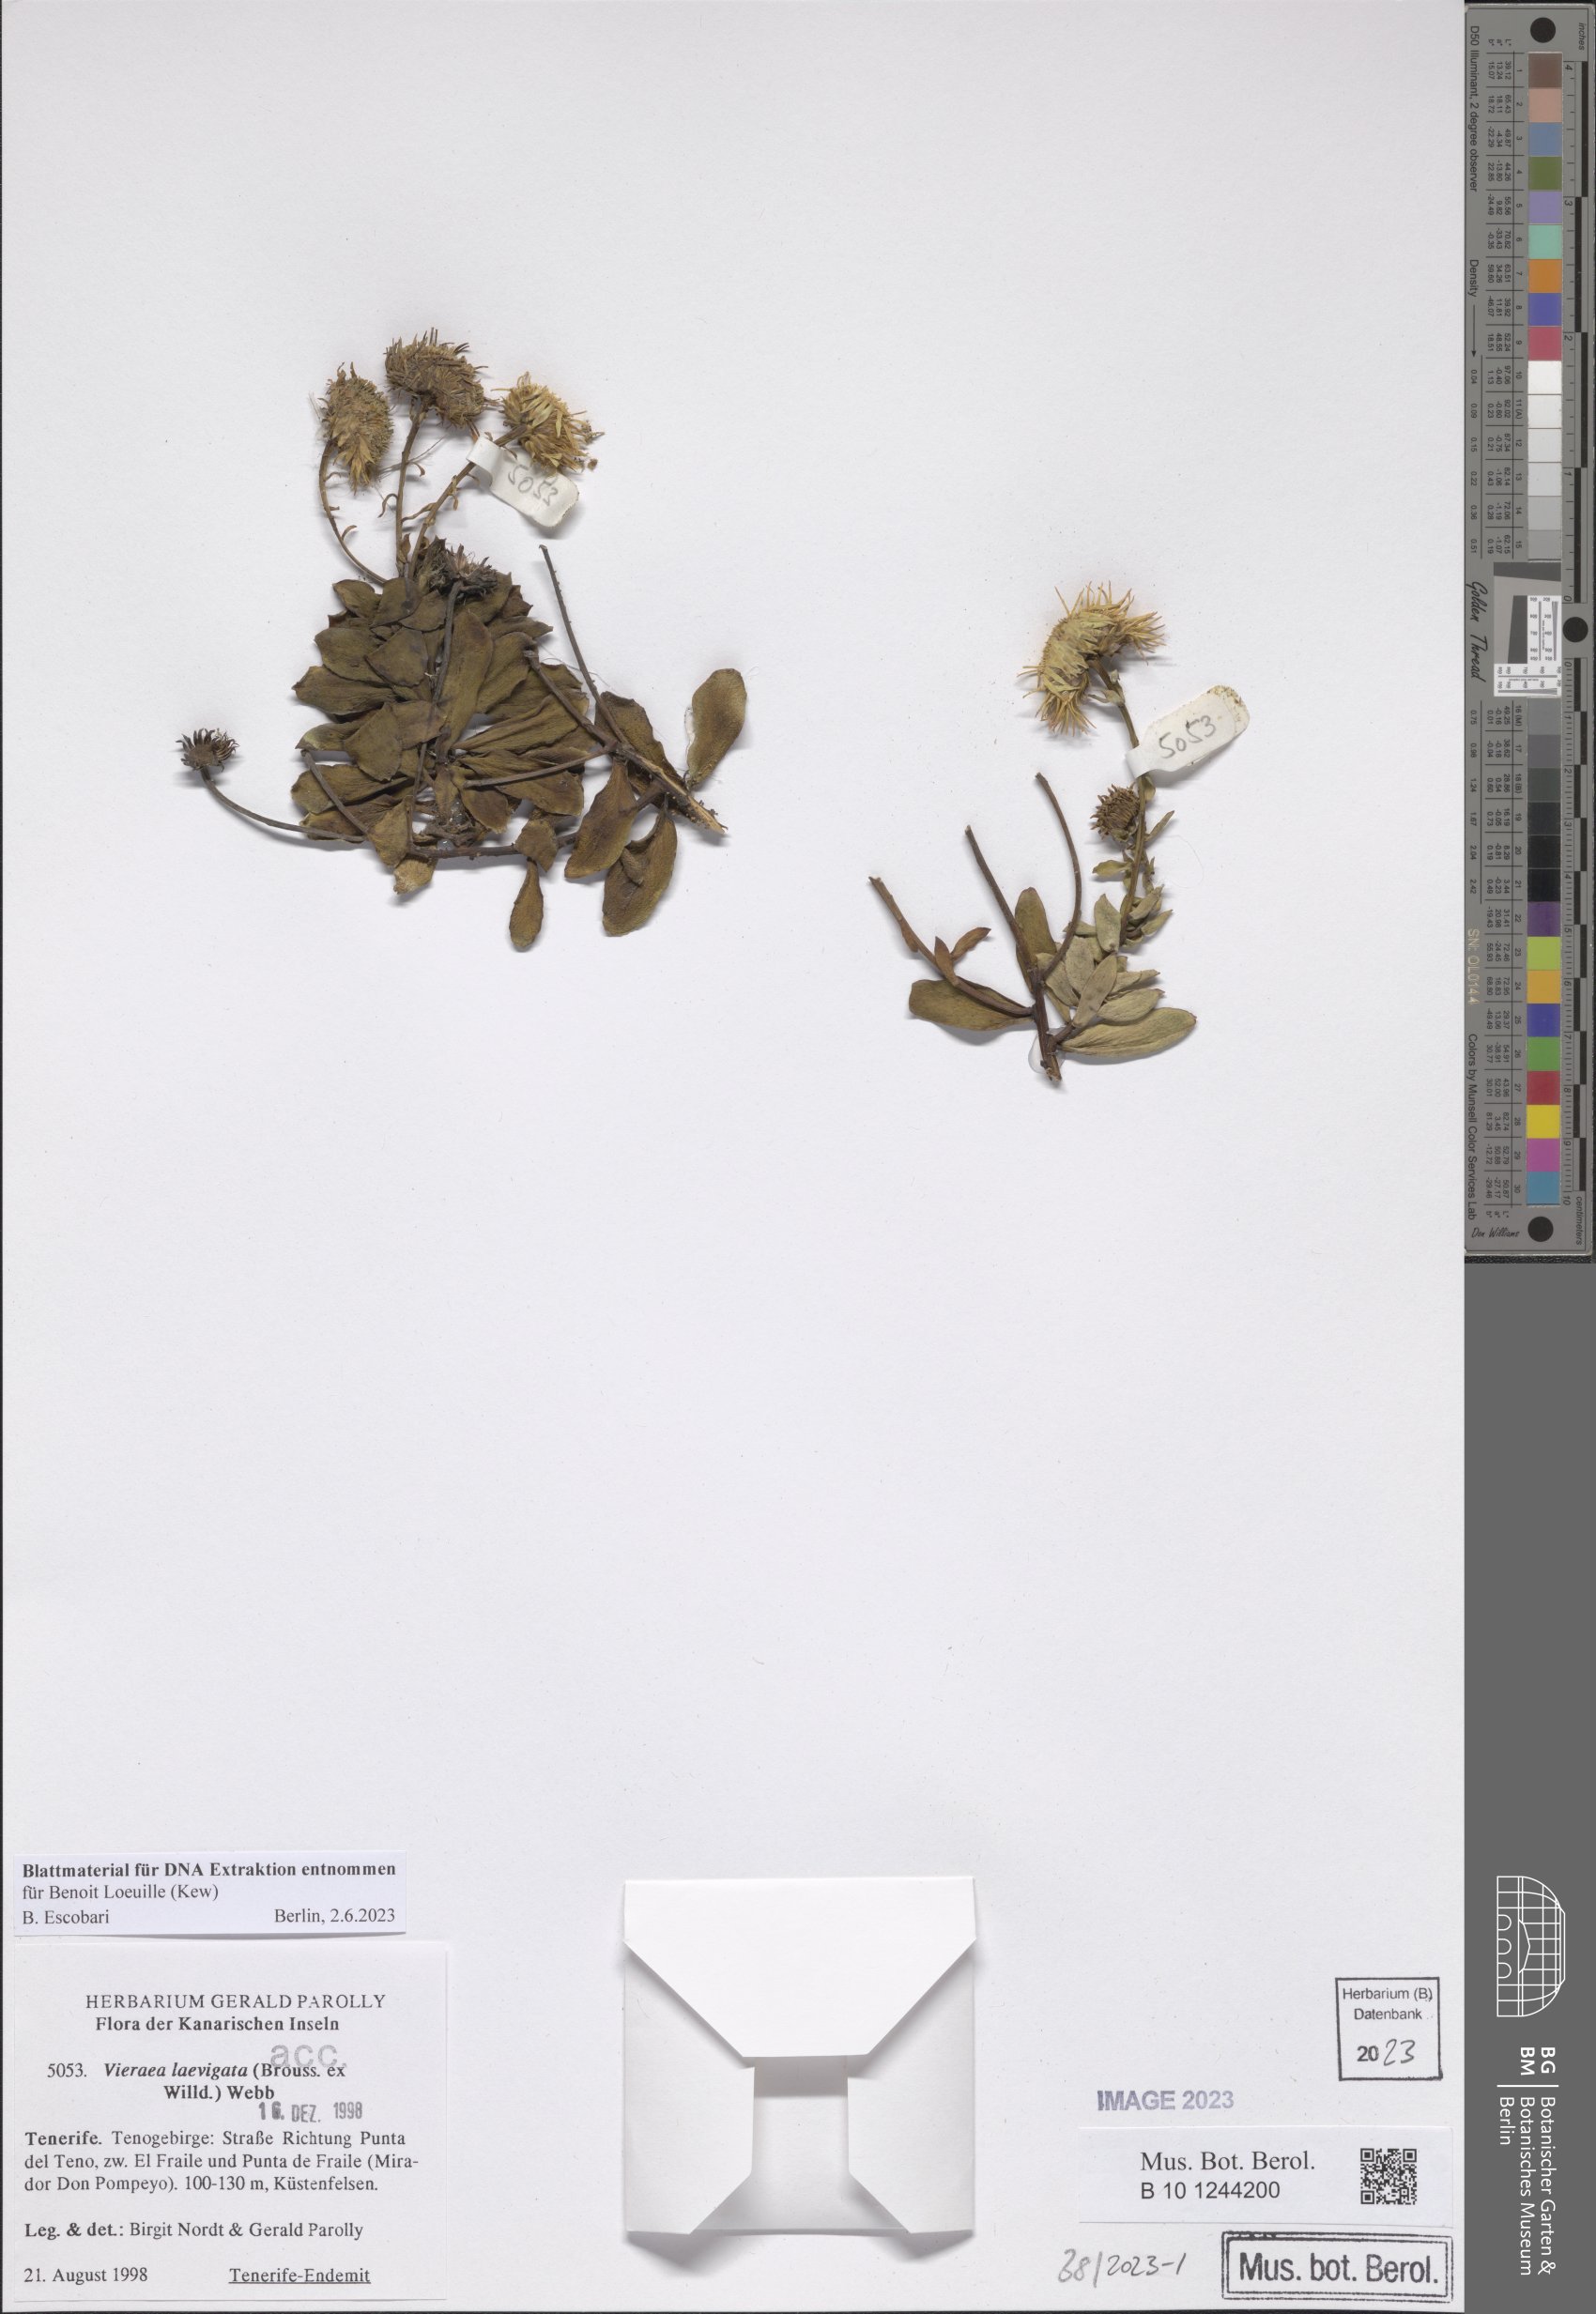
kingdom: Plantae
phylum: Tracheophyta
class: Magnoliopsida
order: Asterales
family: Asteraceae
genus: Vieraea
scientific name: Vieraea laevigata
